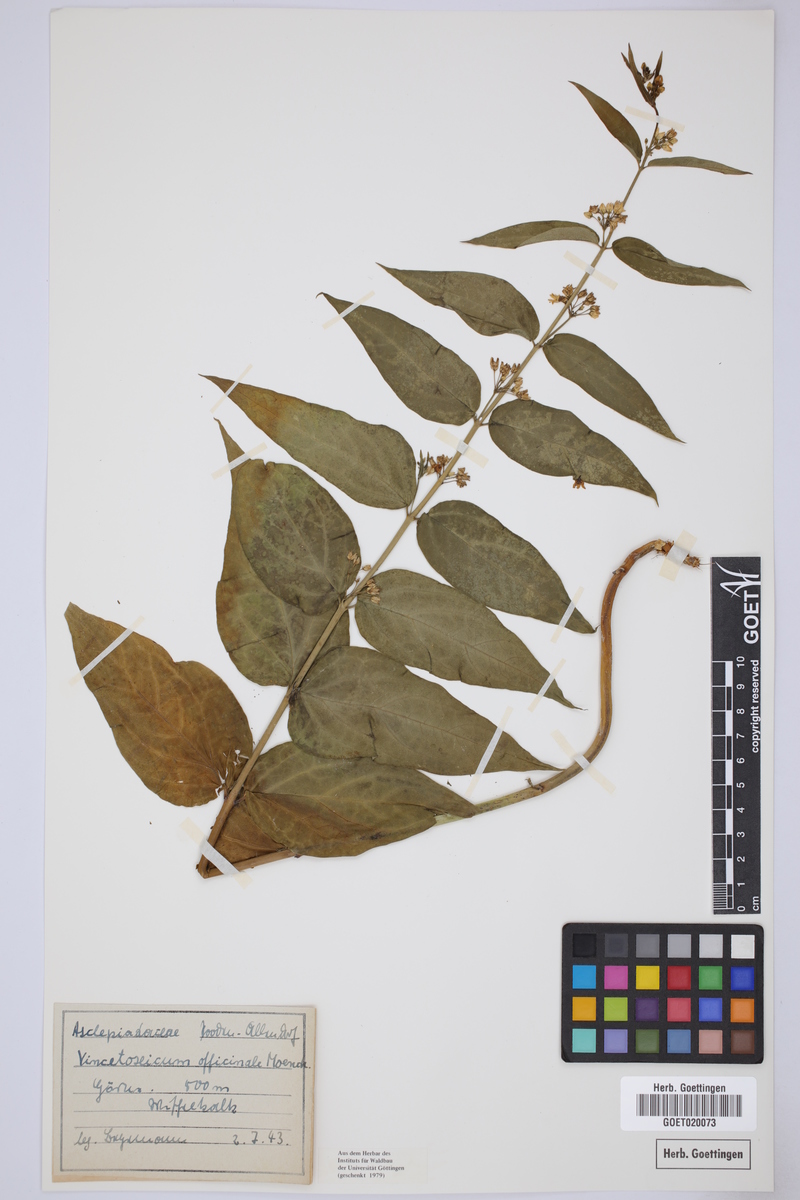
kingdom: Plantae
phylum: Tracheophyta
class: Magnoliopsida
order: Gentianales
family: Apocynaceae
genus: Vincetoxicum
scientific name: Vincetoxicum hirundinaria
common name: White swallowwort
